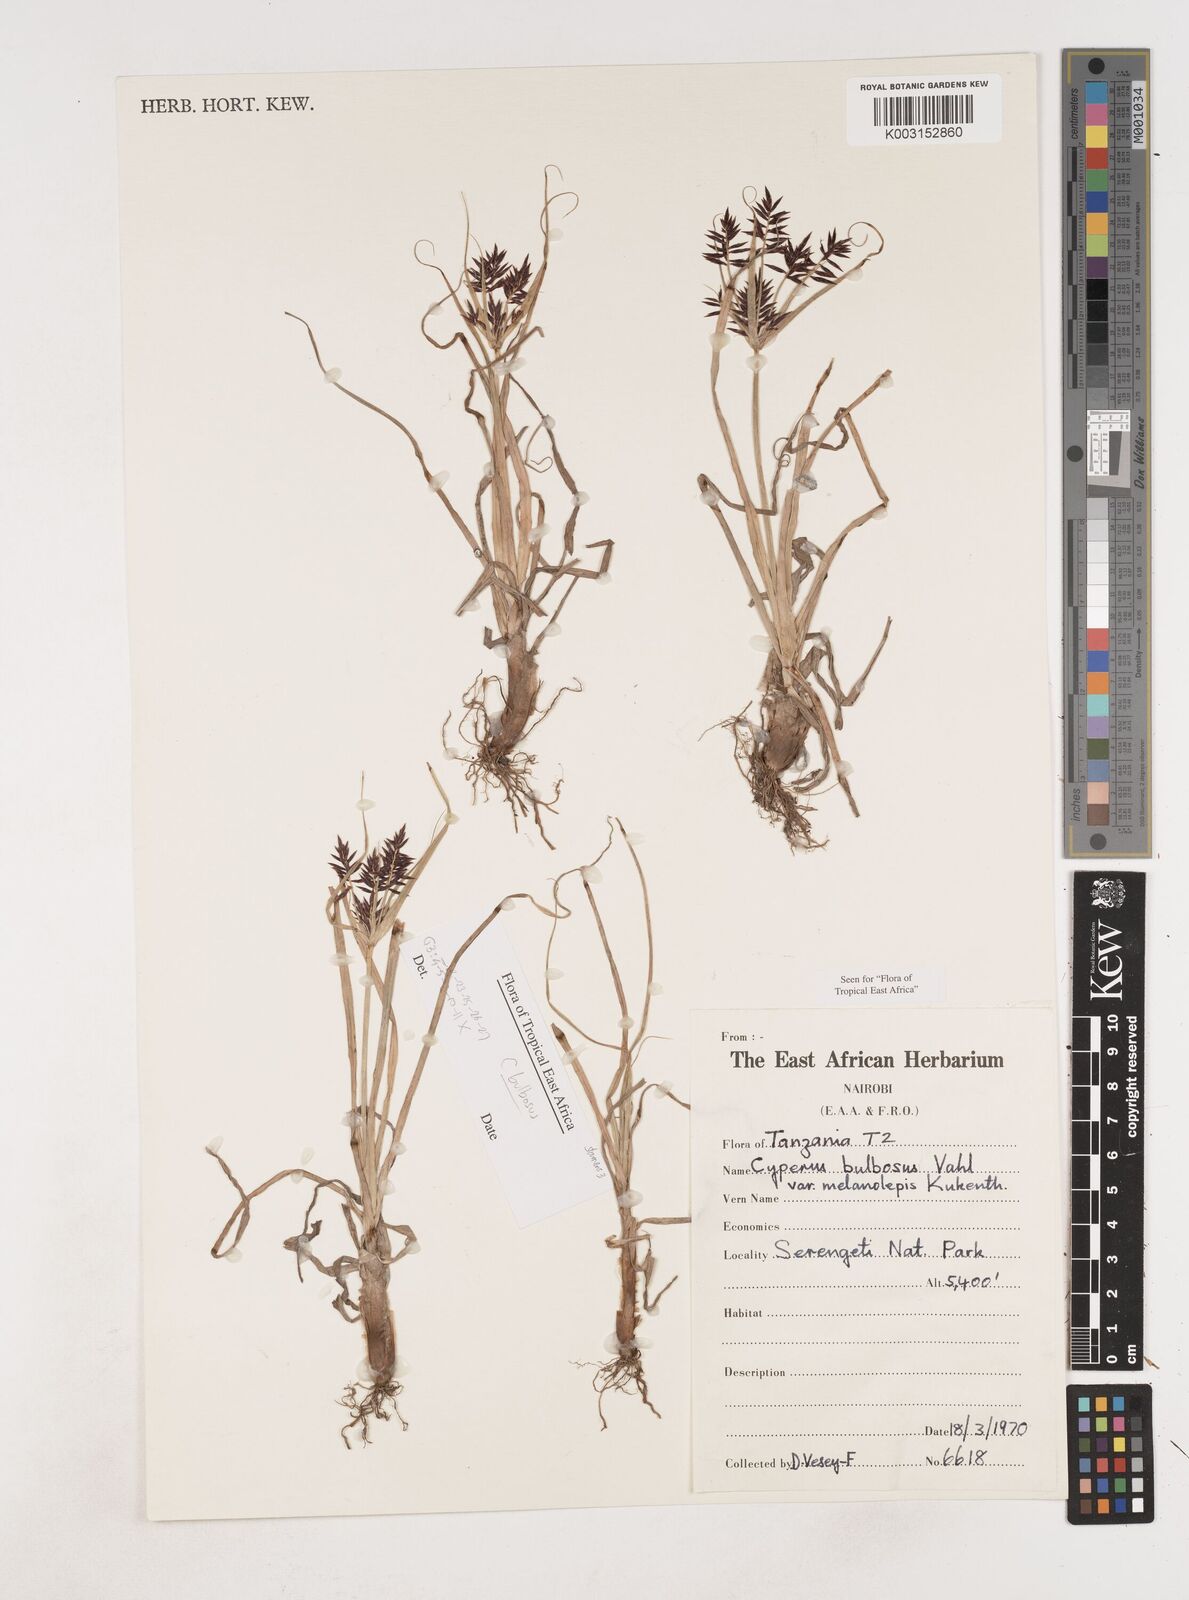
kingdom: Plantae
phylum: Tracheophyta
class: Liliopsida
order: Poales
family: Cyperaceae
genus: Cyperus
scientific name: Cyperus bulbosus
